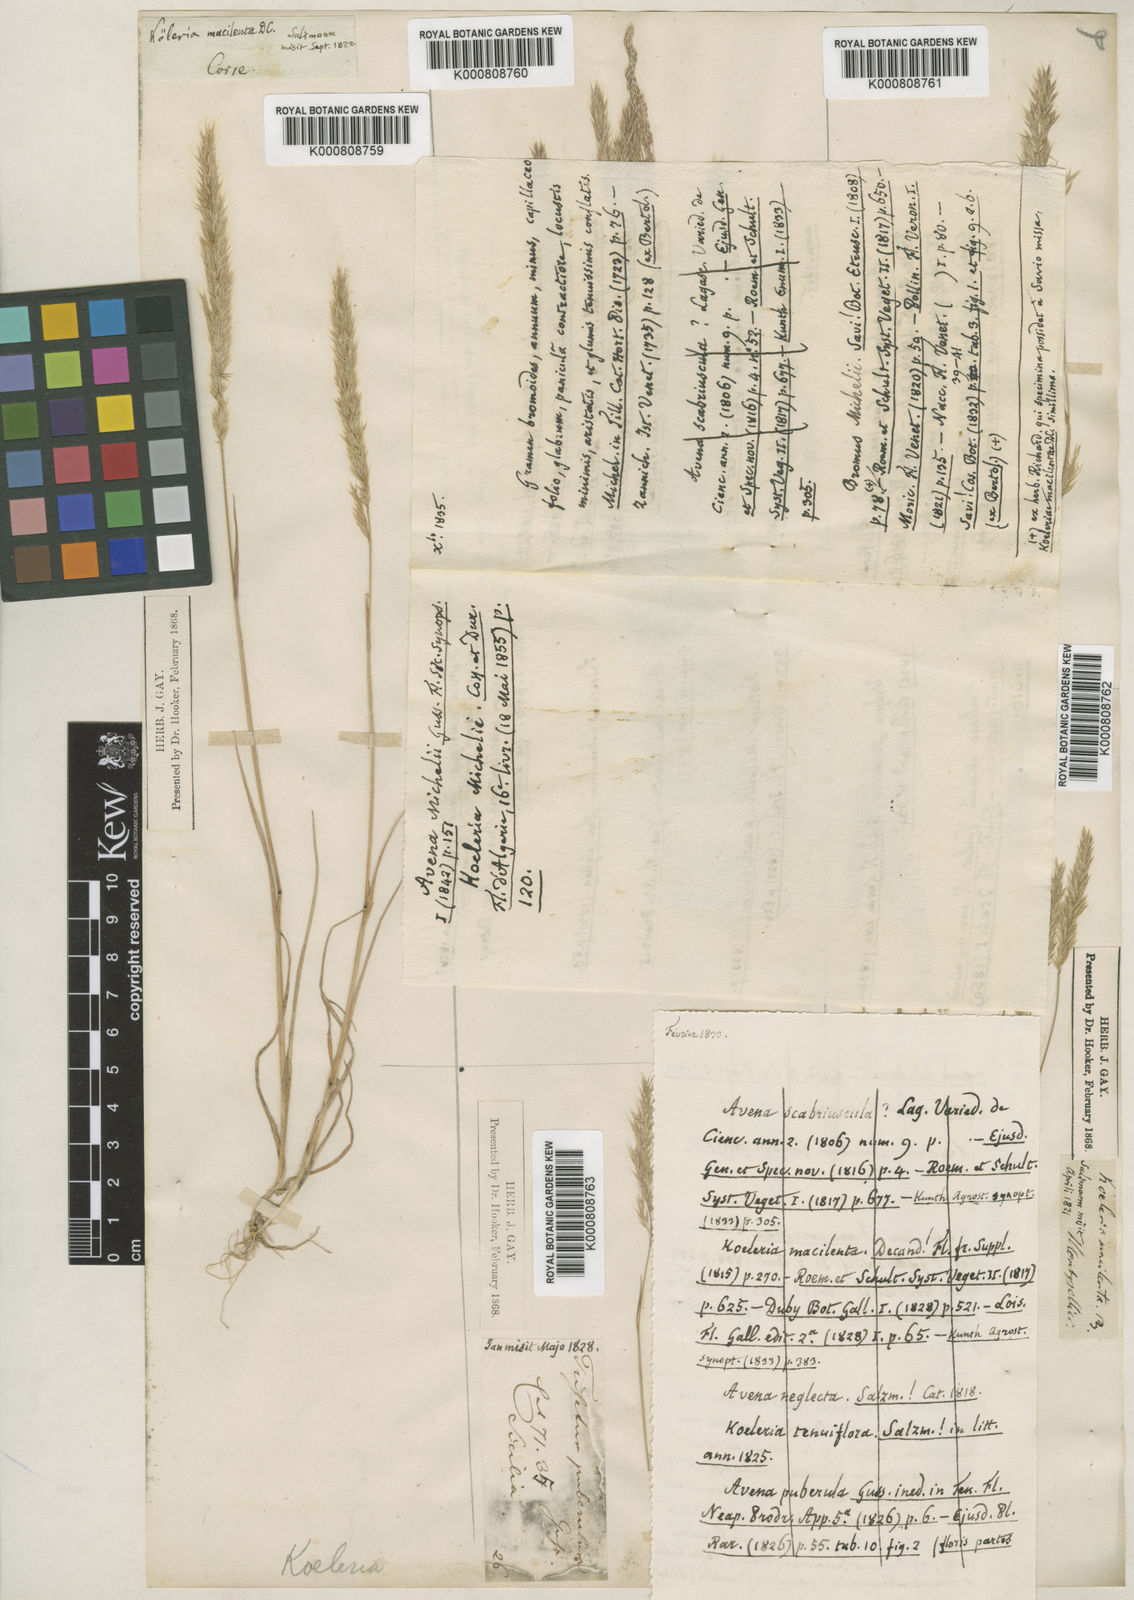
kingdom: Plantae
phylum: Tracheophyta
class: Liliopsida
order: Poales
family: Poaceae
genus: Avellinia
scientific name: Avellinia festucoides
